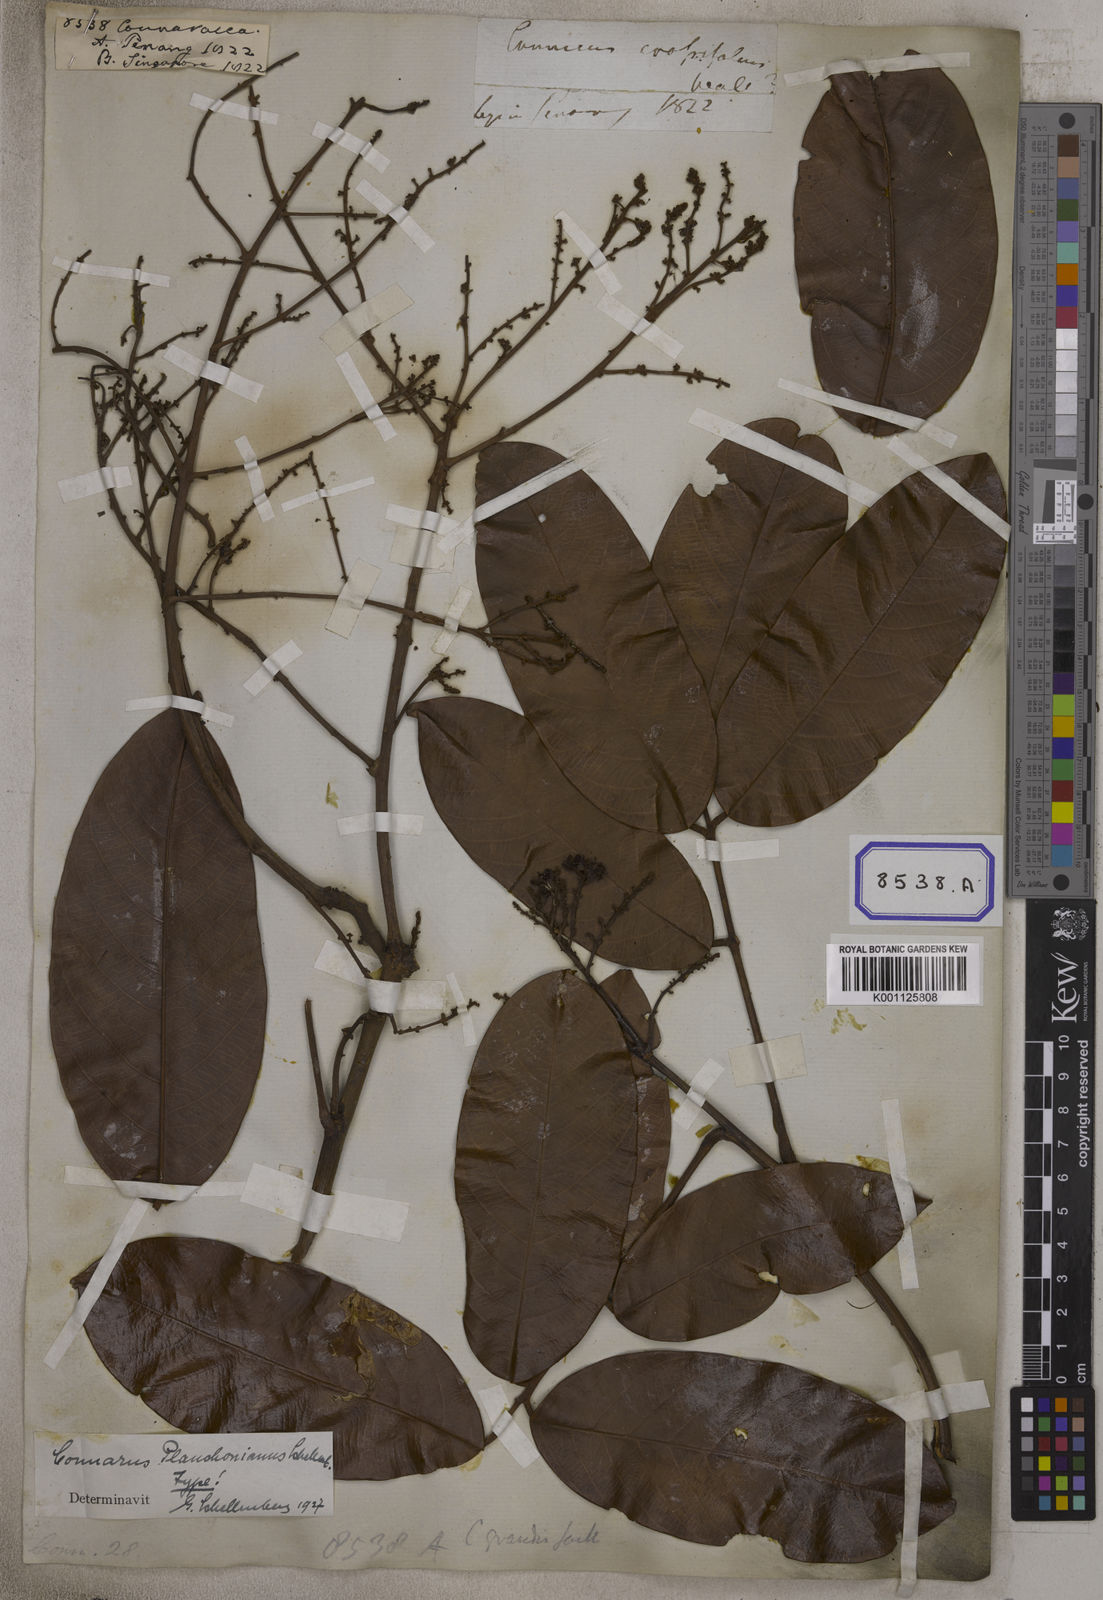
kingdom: Plantae
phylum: Tracheophyta
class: Magnoliopsida
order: Oxalidales
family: Connaraceae
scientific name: Connaraceae
